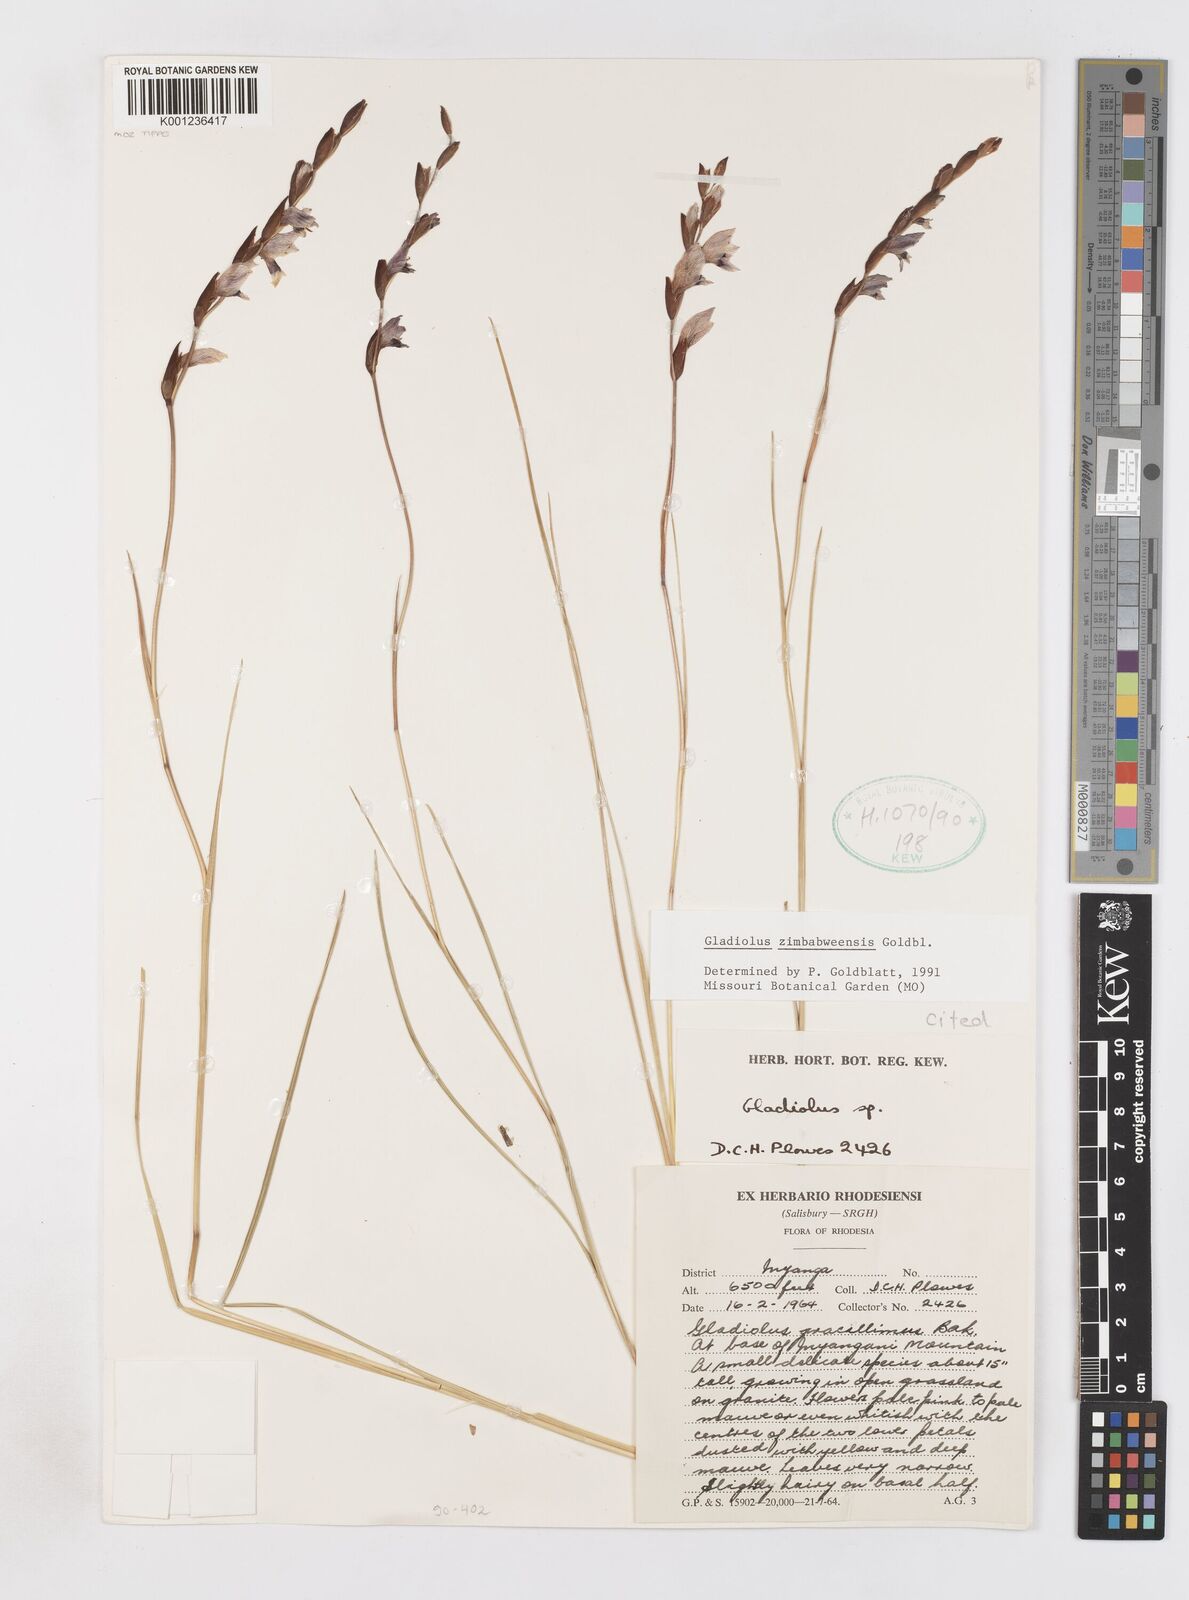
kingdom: Plantae
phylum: Tracheophyta
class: Liliopsida
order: Asparagales
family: Iridaceae
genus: Gladiolus
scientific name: Gladiolus zimbabweensis
